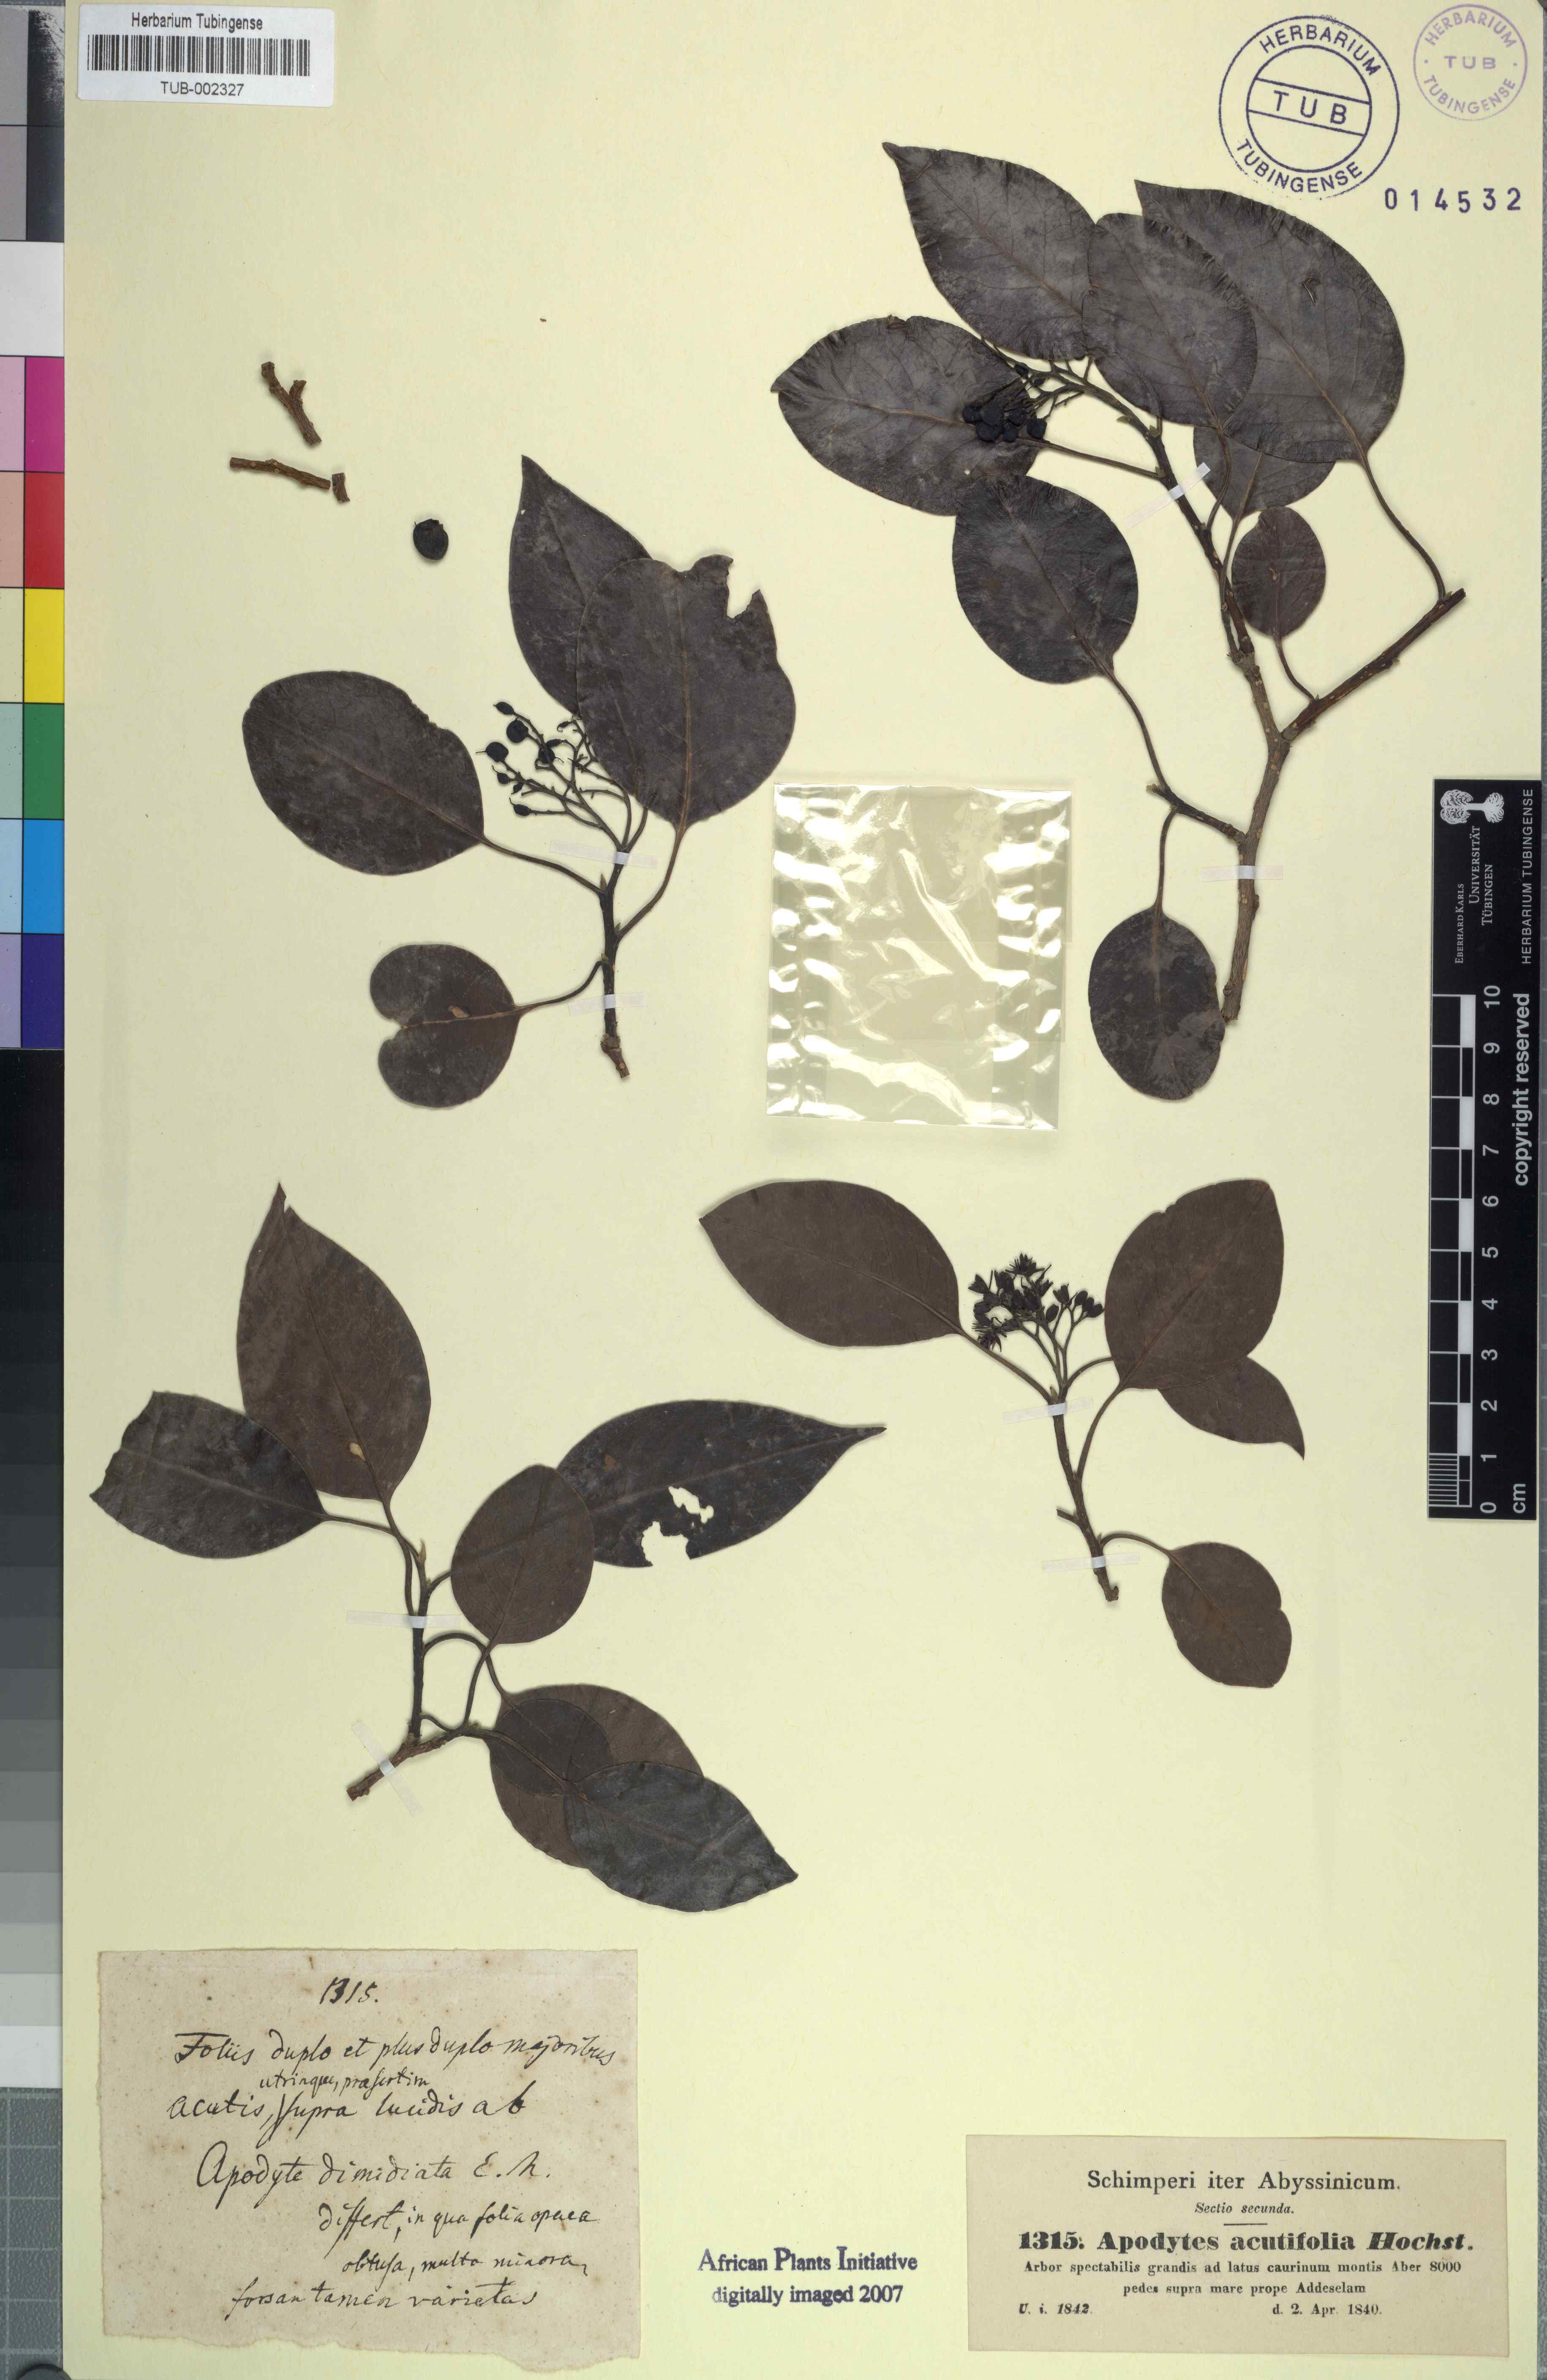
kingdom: Plantae
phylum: Tracheophyta
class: Magnoliopsida
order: Metteniusales
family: Metteniusaceae
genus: Apodytes
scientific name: Apodytes dimidiata
